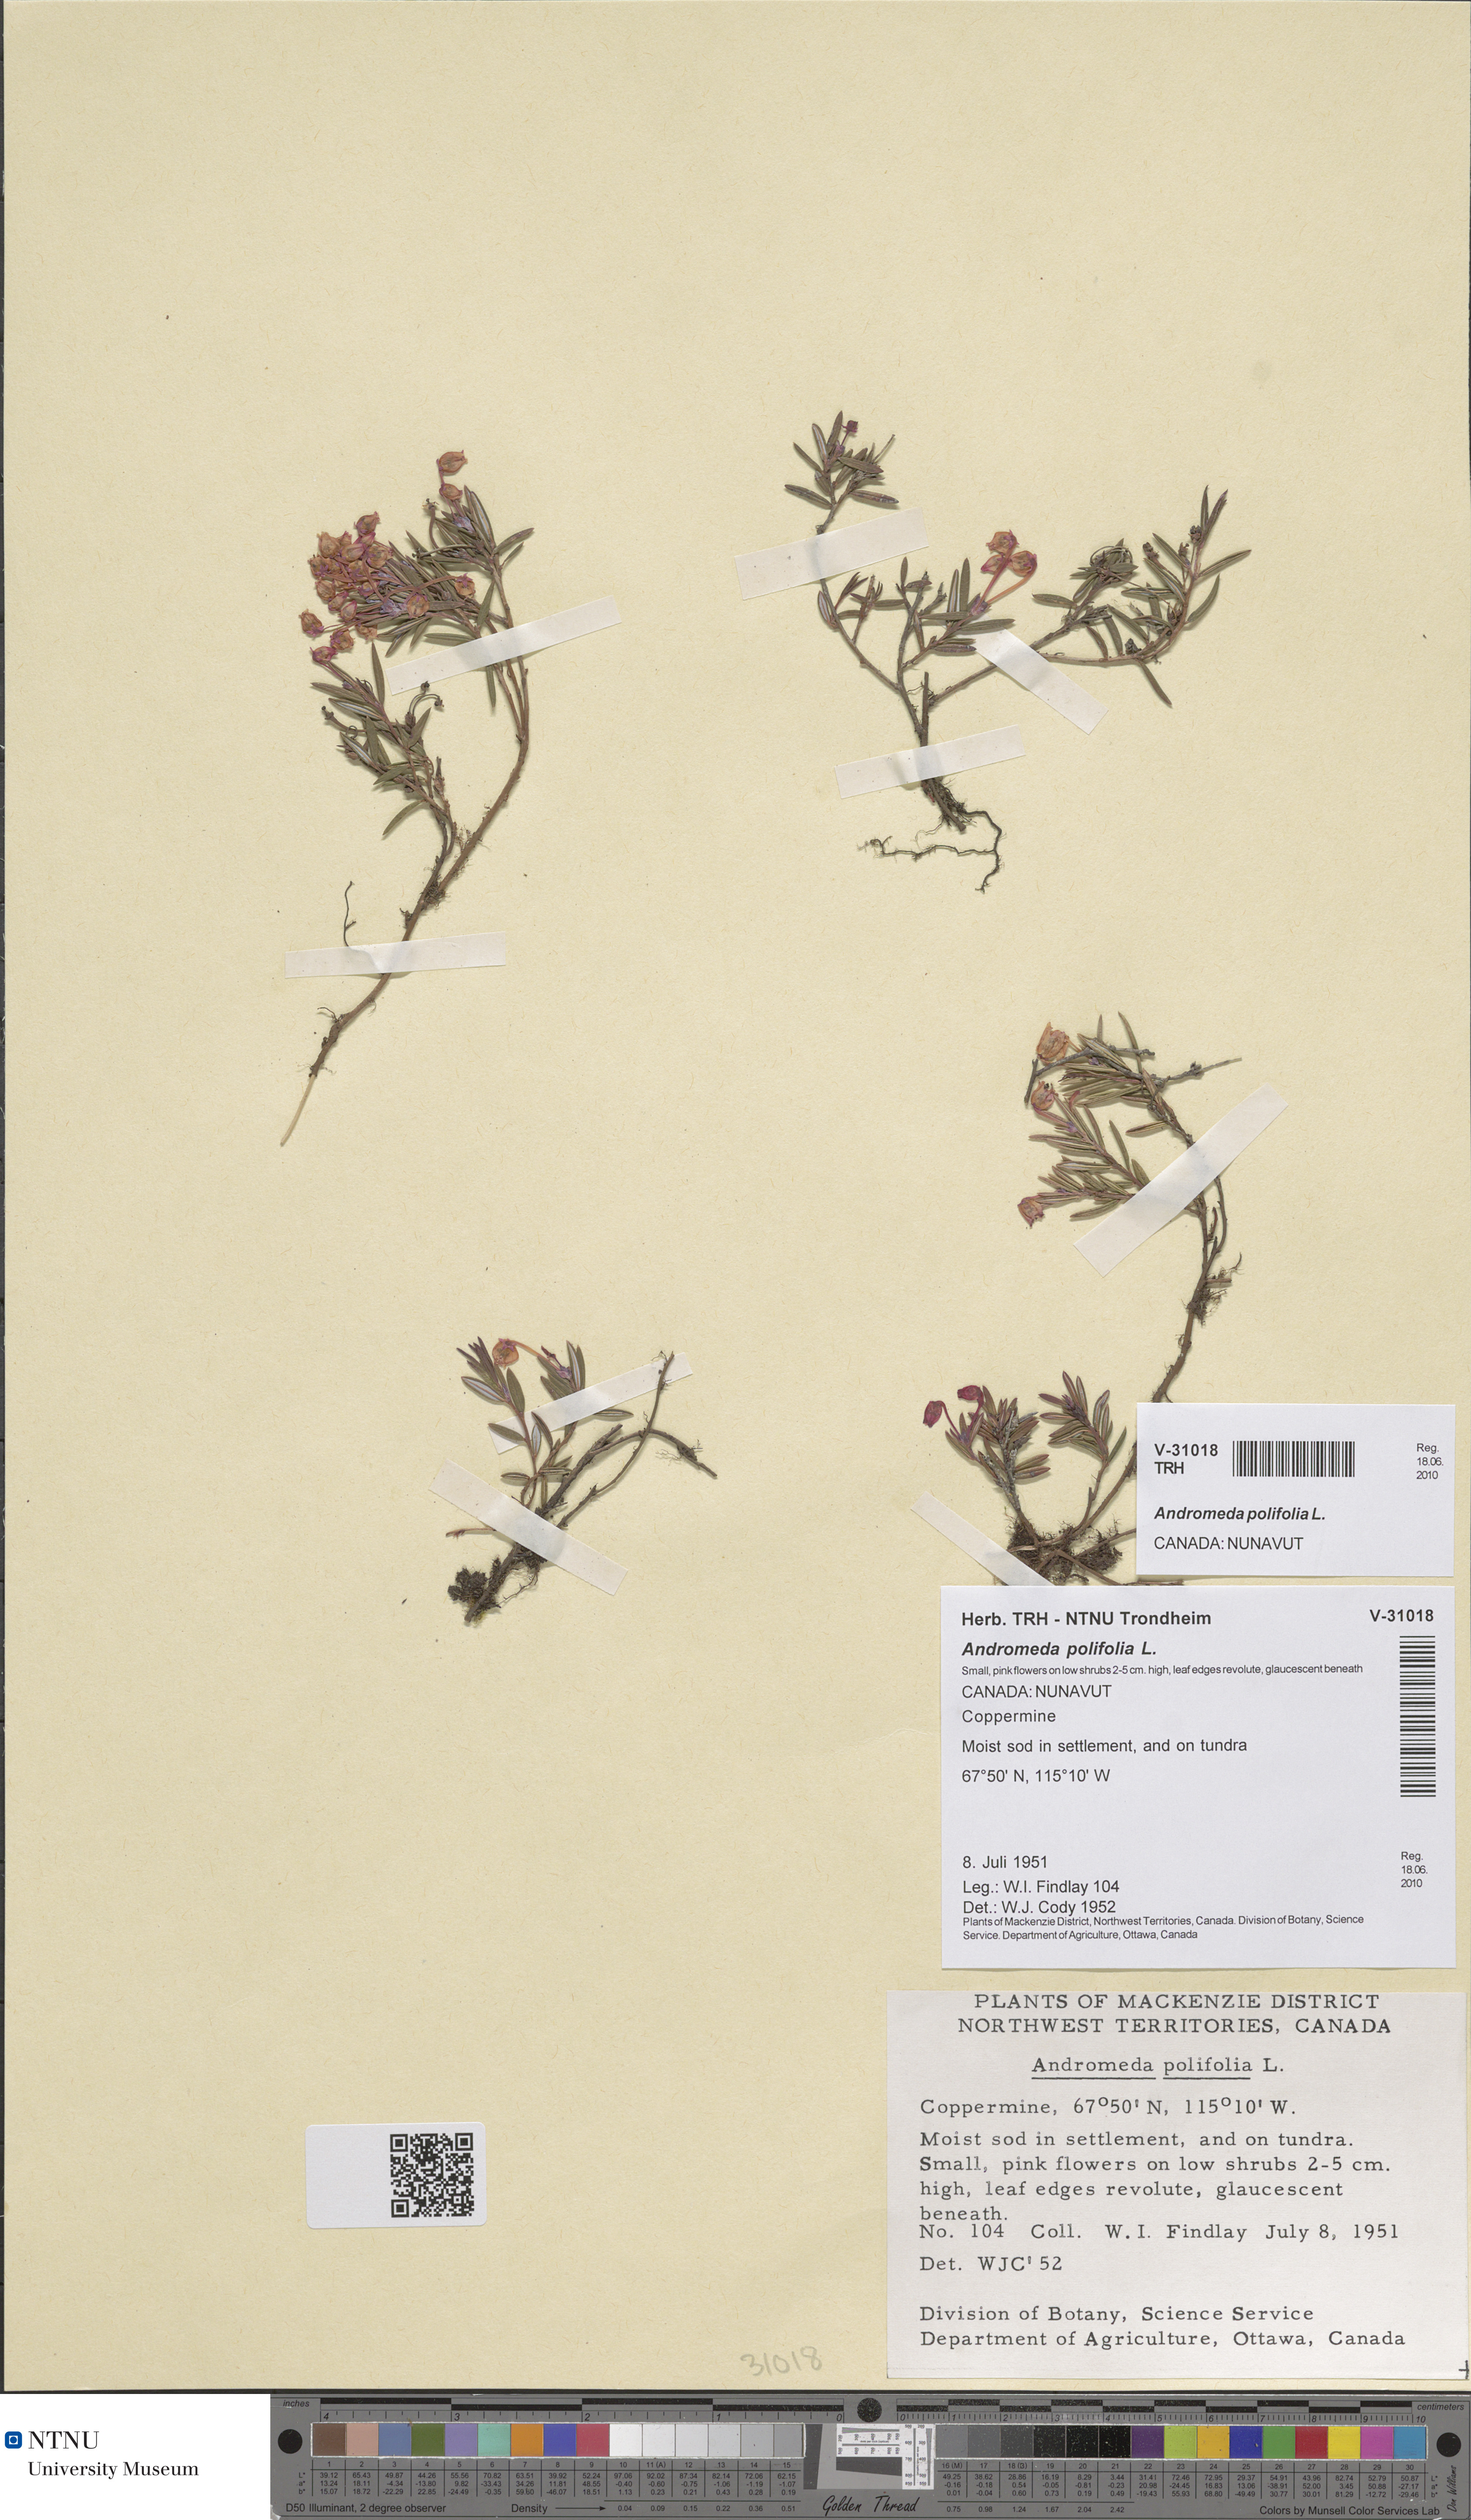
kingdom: Plantae
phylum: Tracheophyta
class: Magnoliopsida
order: Ericales
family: Ericaceae
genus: Andromeda
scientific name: Andromeda polifolia
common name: Bog-rosemary
